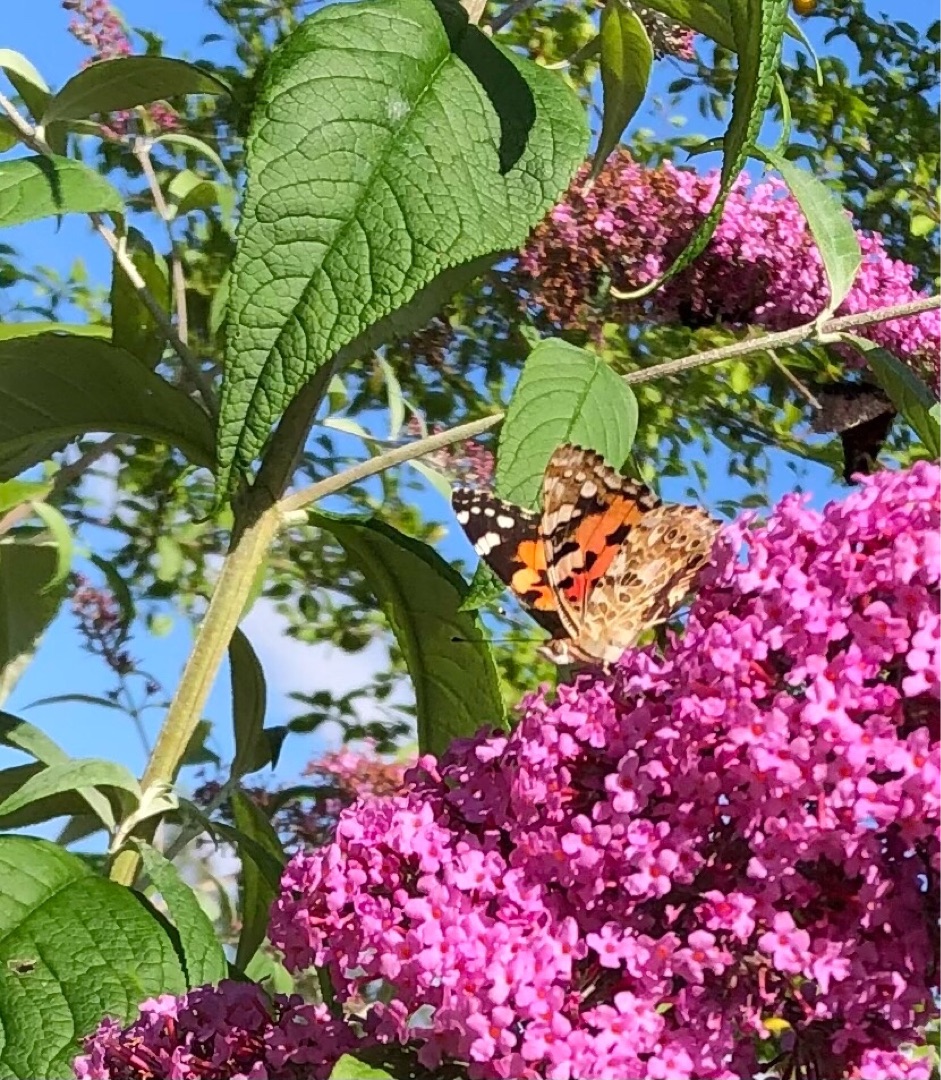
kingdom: Animalia
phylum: Arthropoda
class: Insecta
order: Lepidoptera
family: Nymphalidae
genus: Vanessa
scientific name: Vanessa cardui
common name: Tidselsommerfugl
